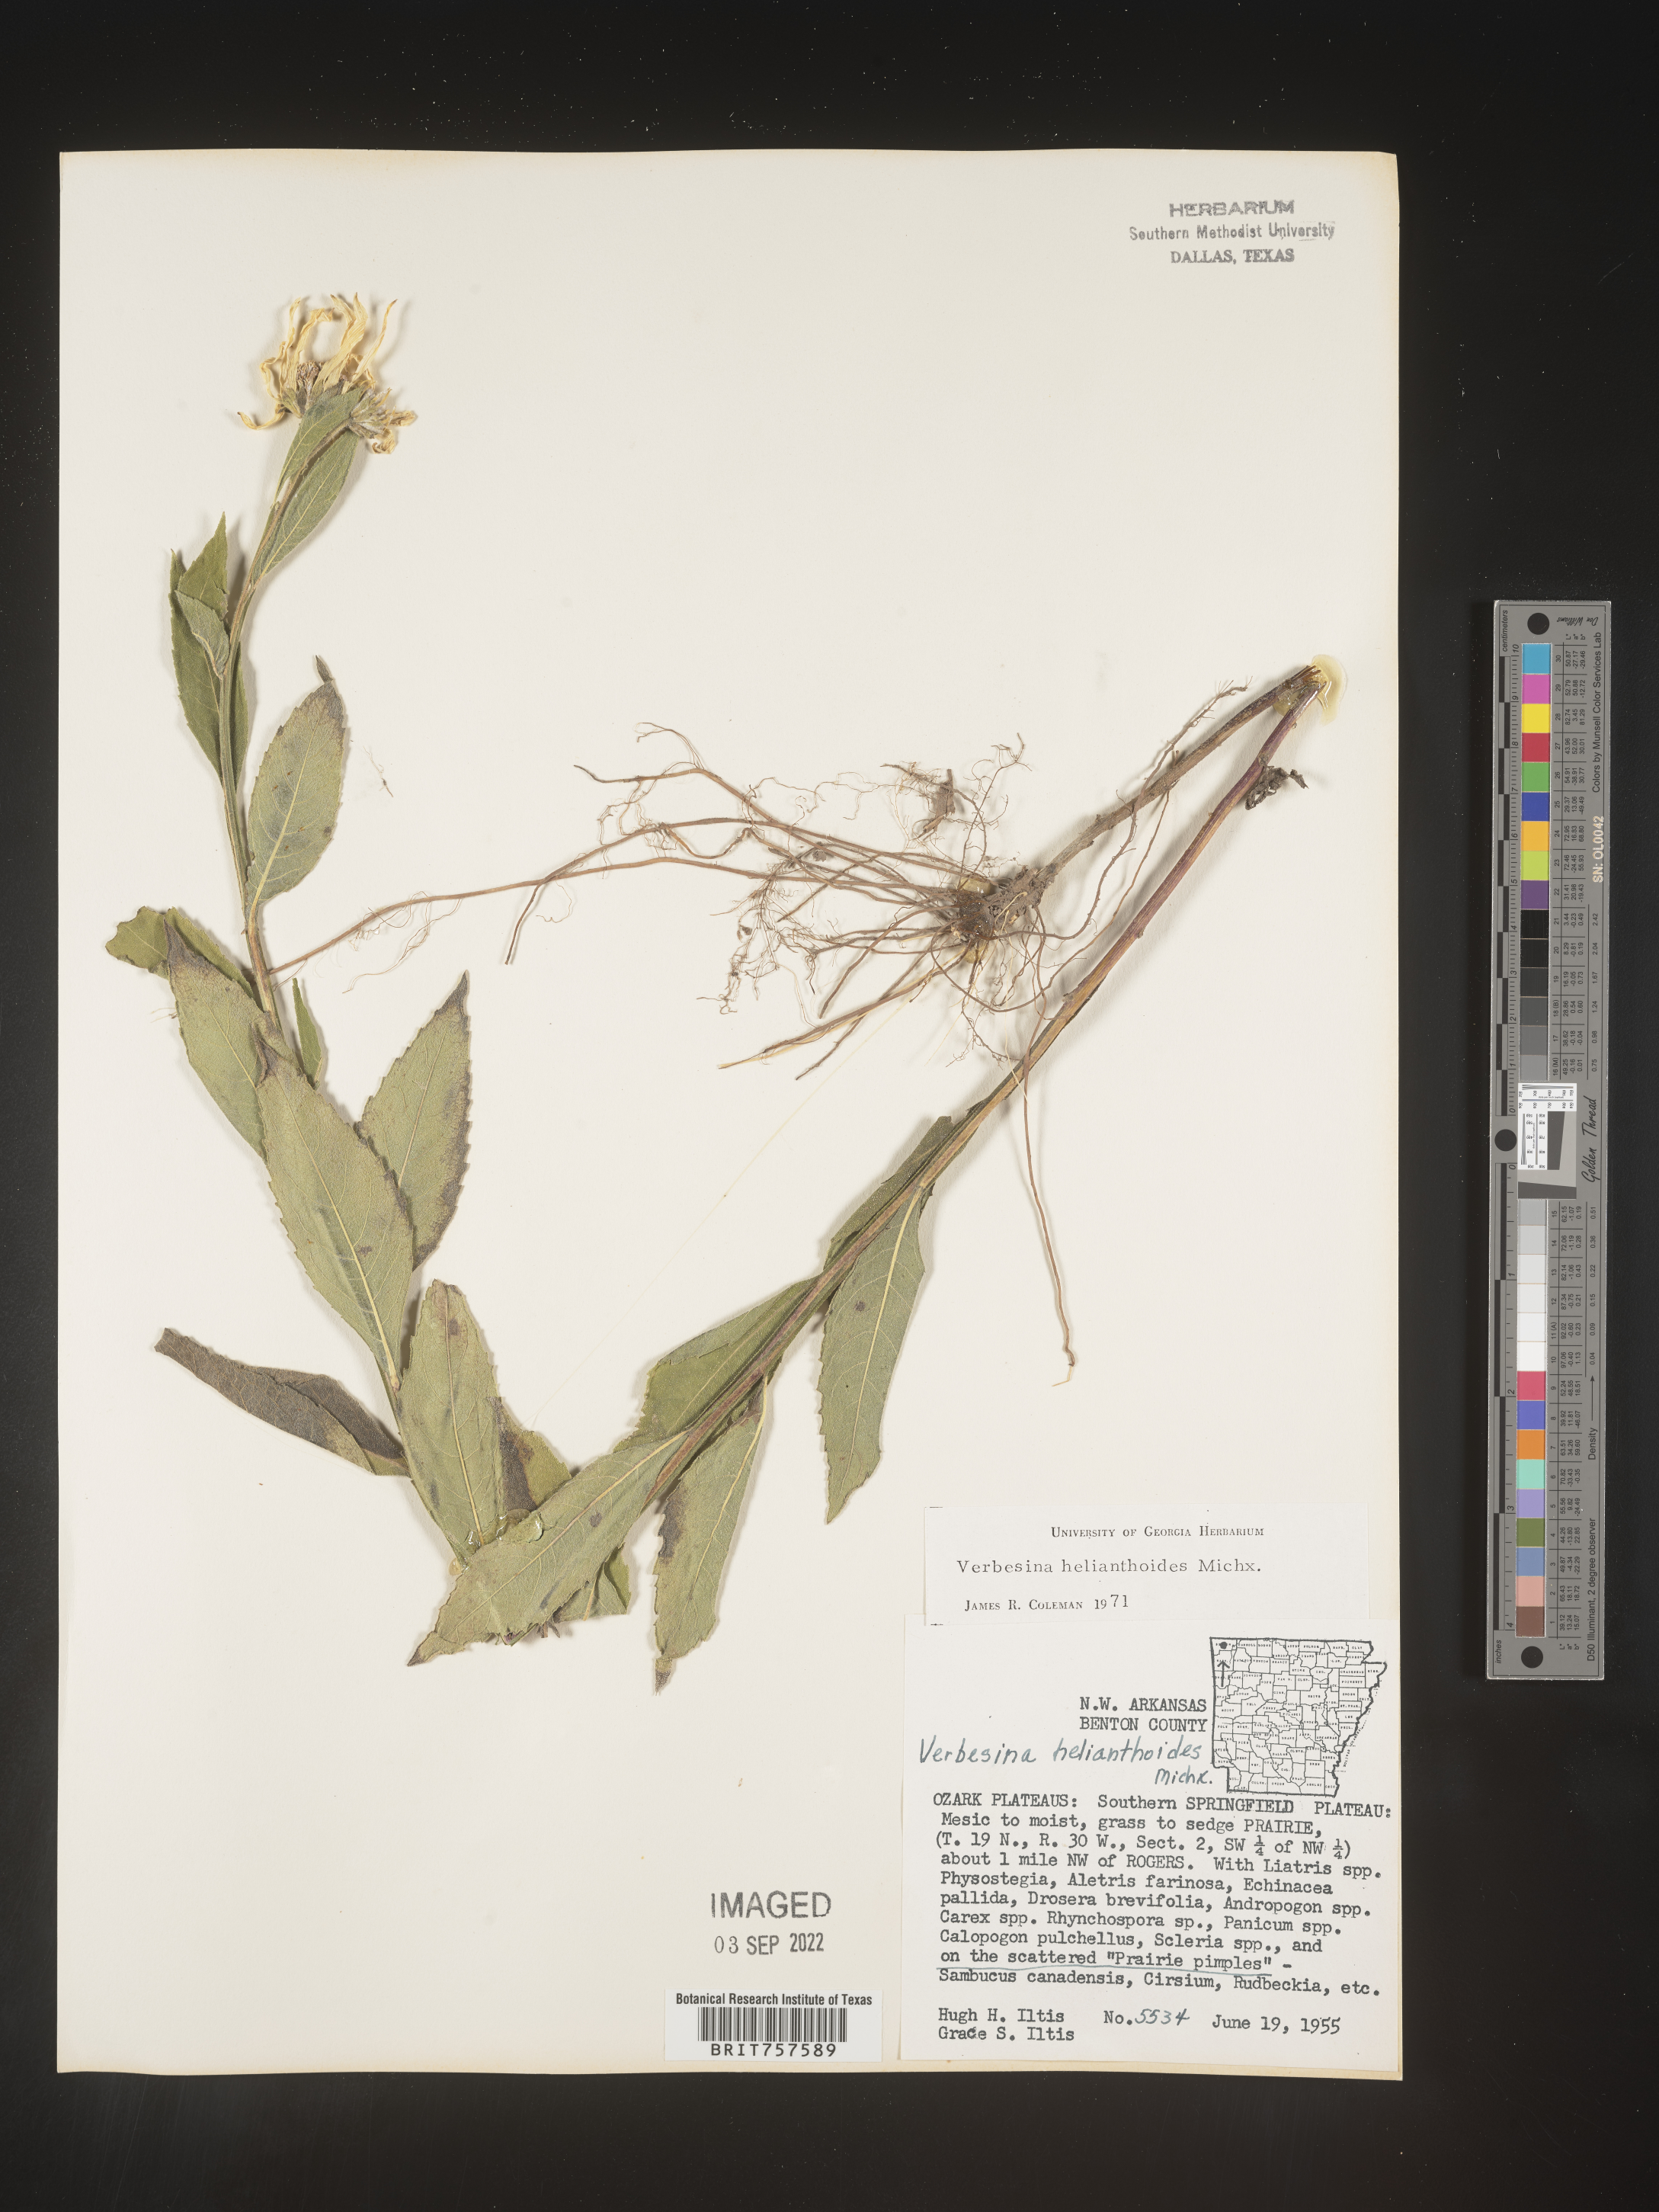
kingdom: Plantae
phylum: Tracheophyta
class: Magnoliopsida
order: Asterales
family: Asteraceae
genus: Verbesina
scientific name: Verbesina helianthoides
